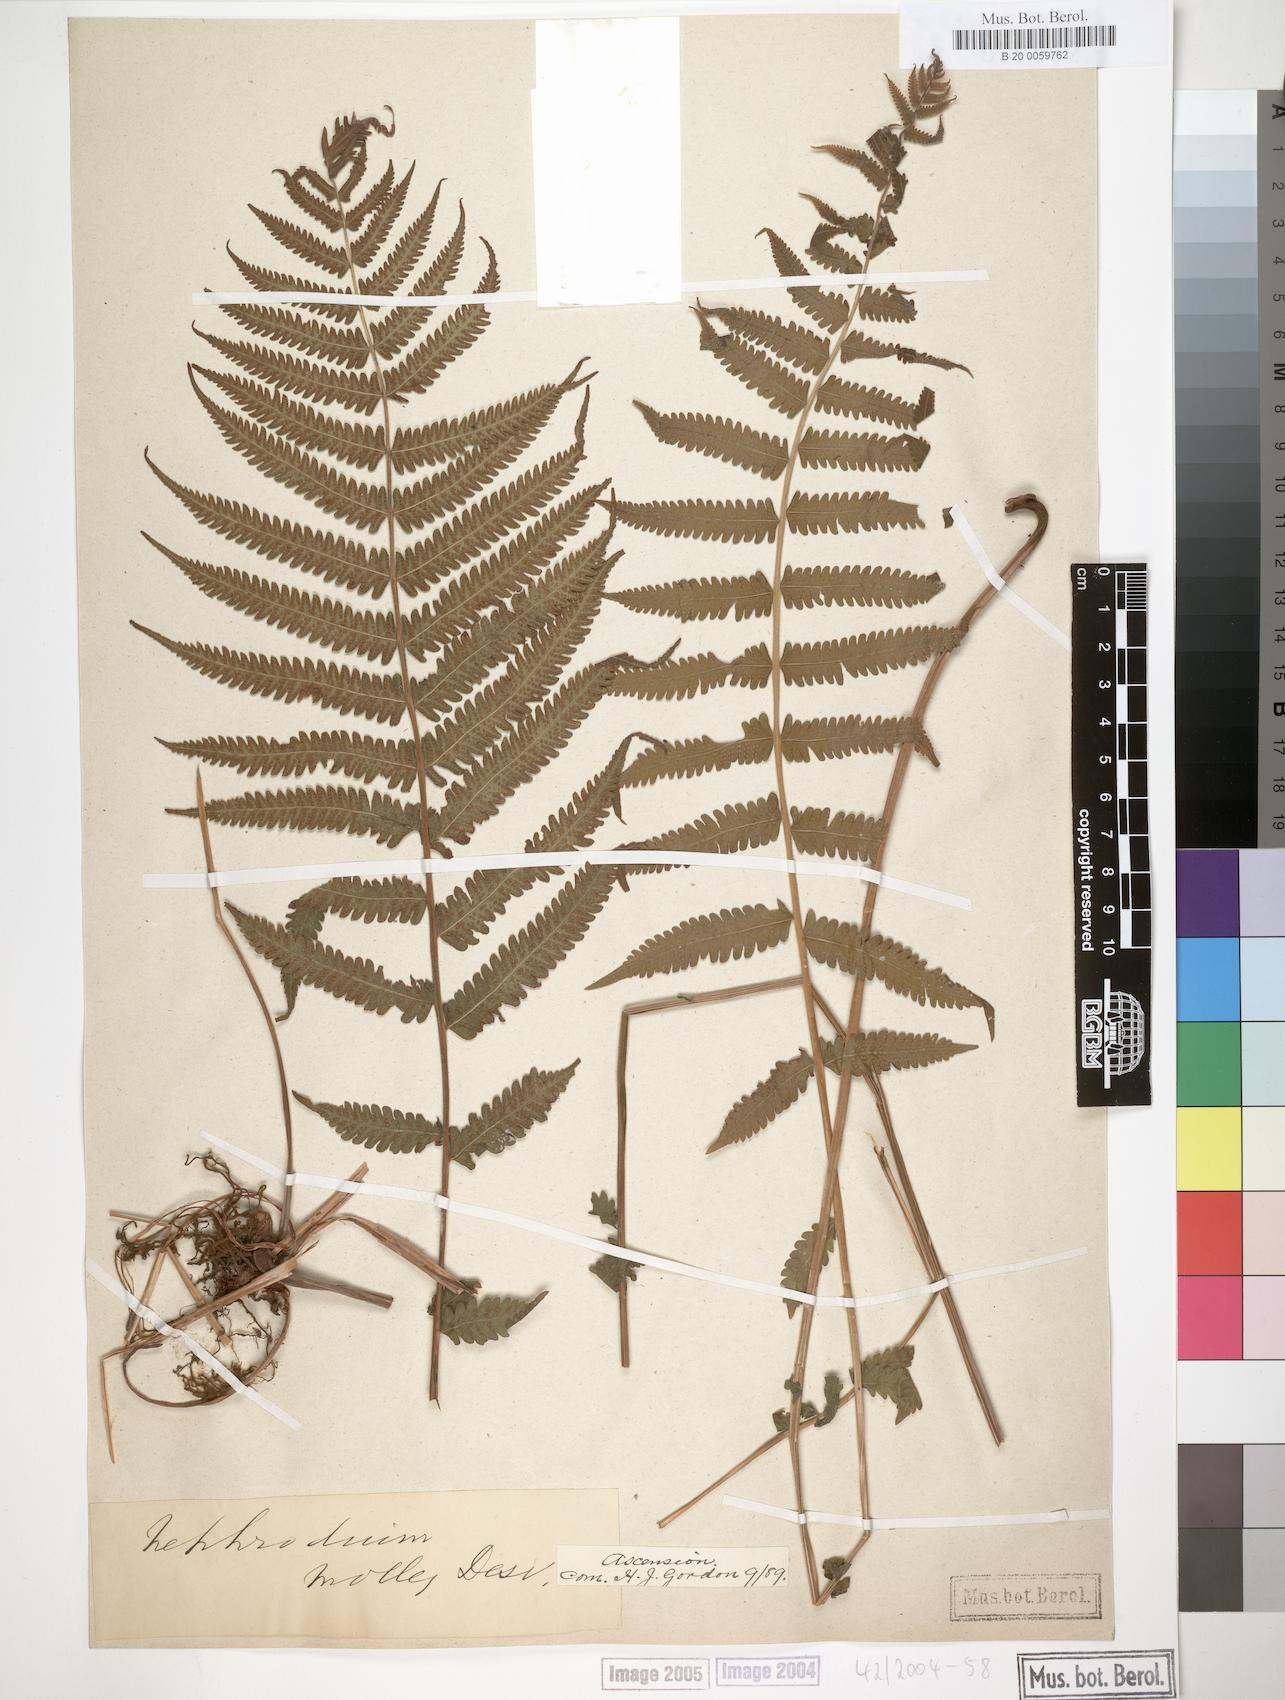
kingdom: Plantae
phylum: Tracheophyta
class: Polypodiopsida
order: Polypodiales
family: Thelypteridaceae
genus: Christella
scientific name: Christella dentata
